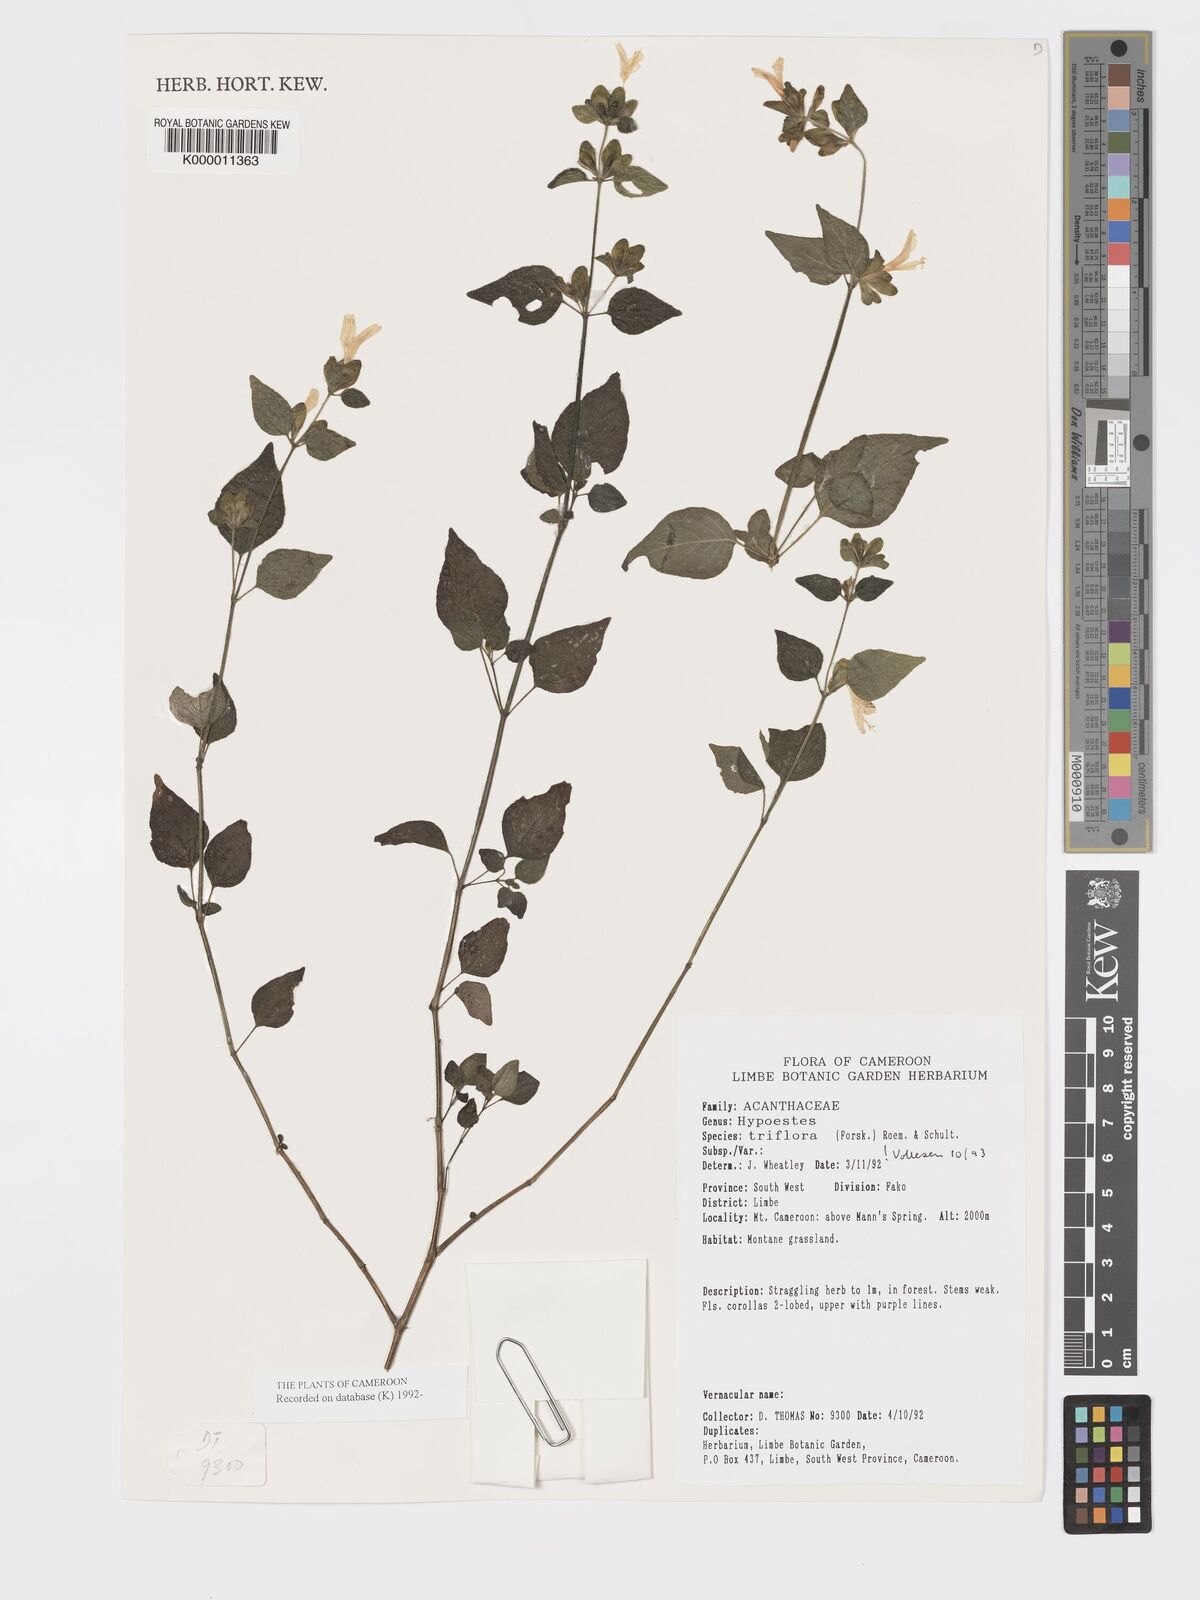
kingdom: Plantae
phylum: Tracheophyta
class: Magnoliopsida
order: Lamiales
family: Acanthaceae
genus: Hypoestes
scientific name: Hypoestes triflora
